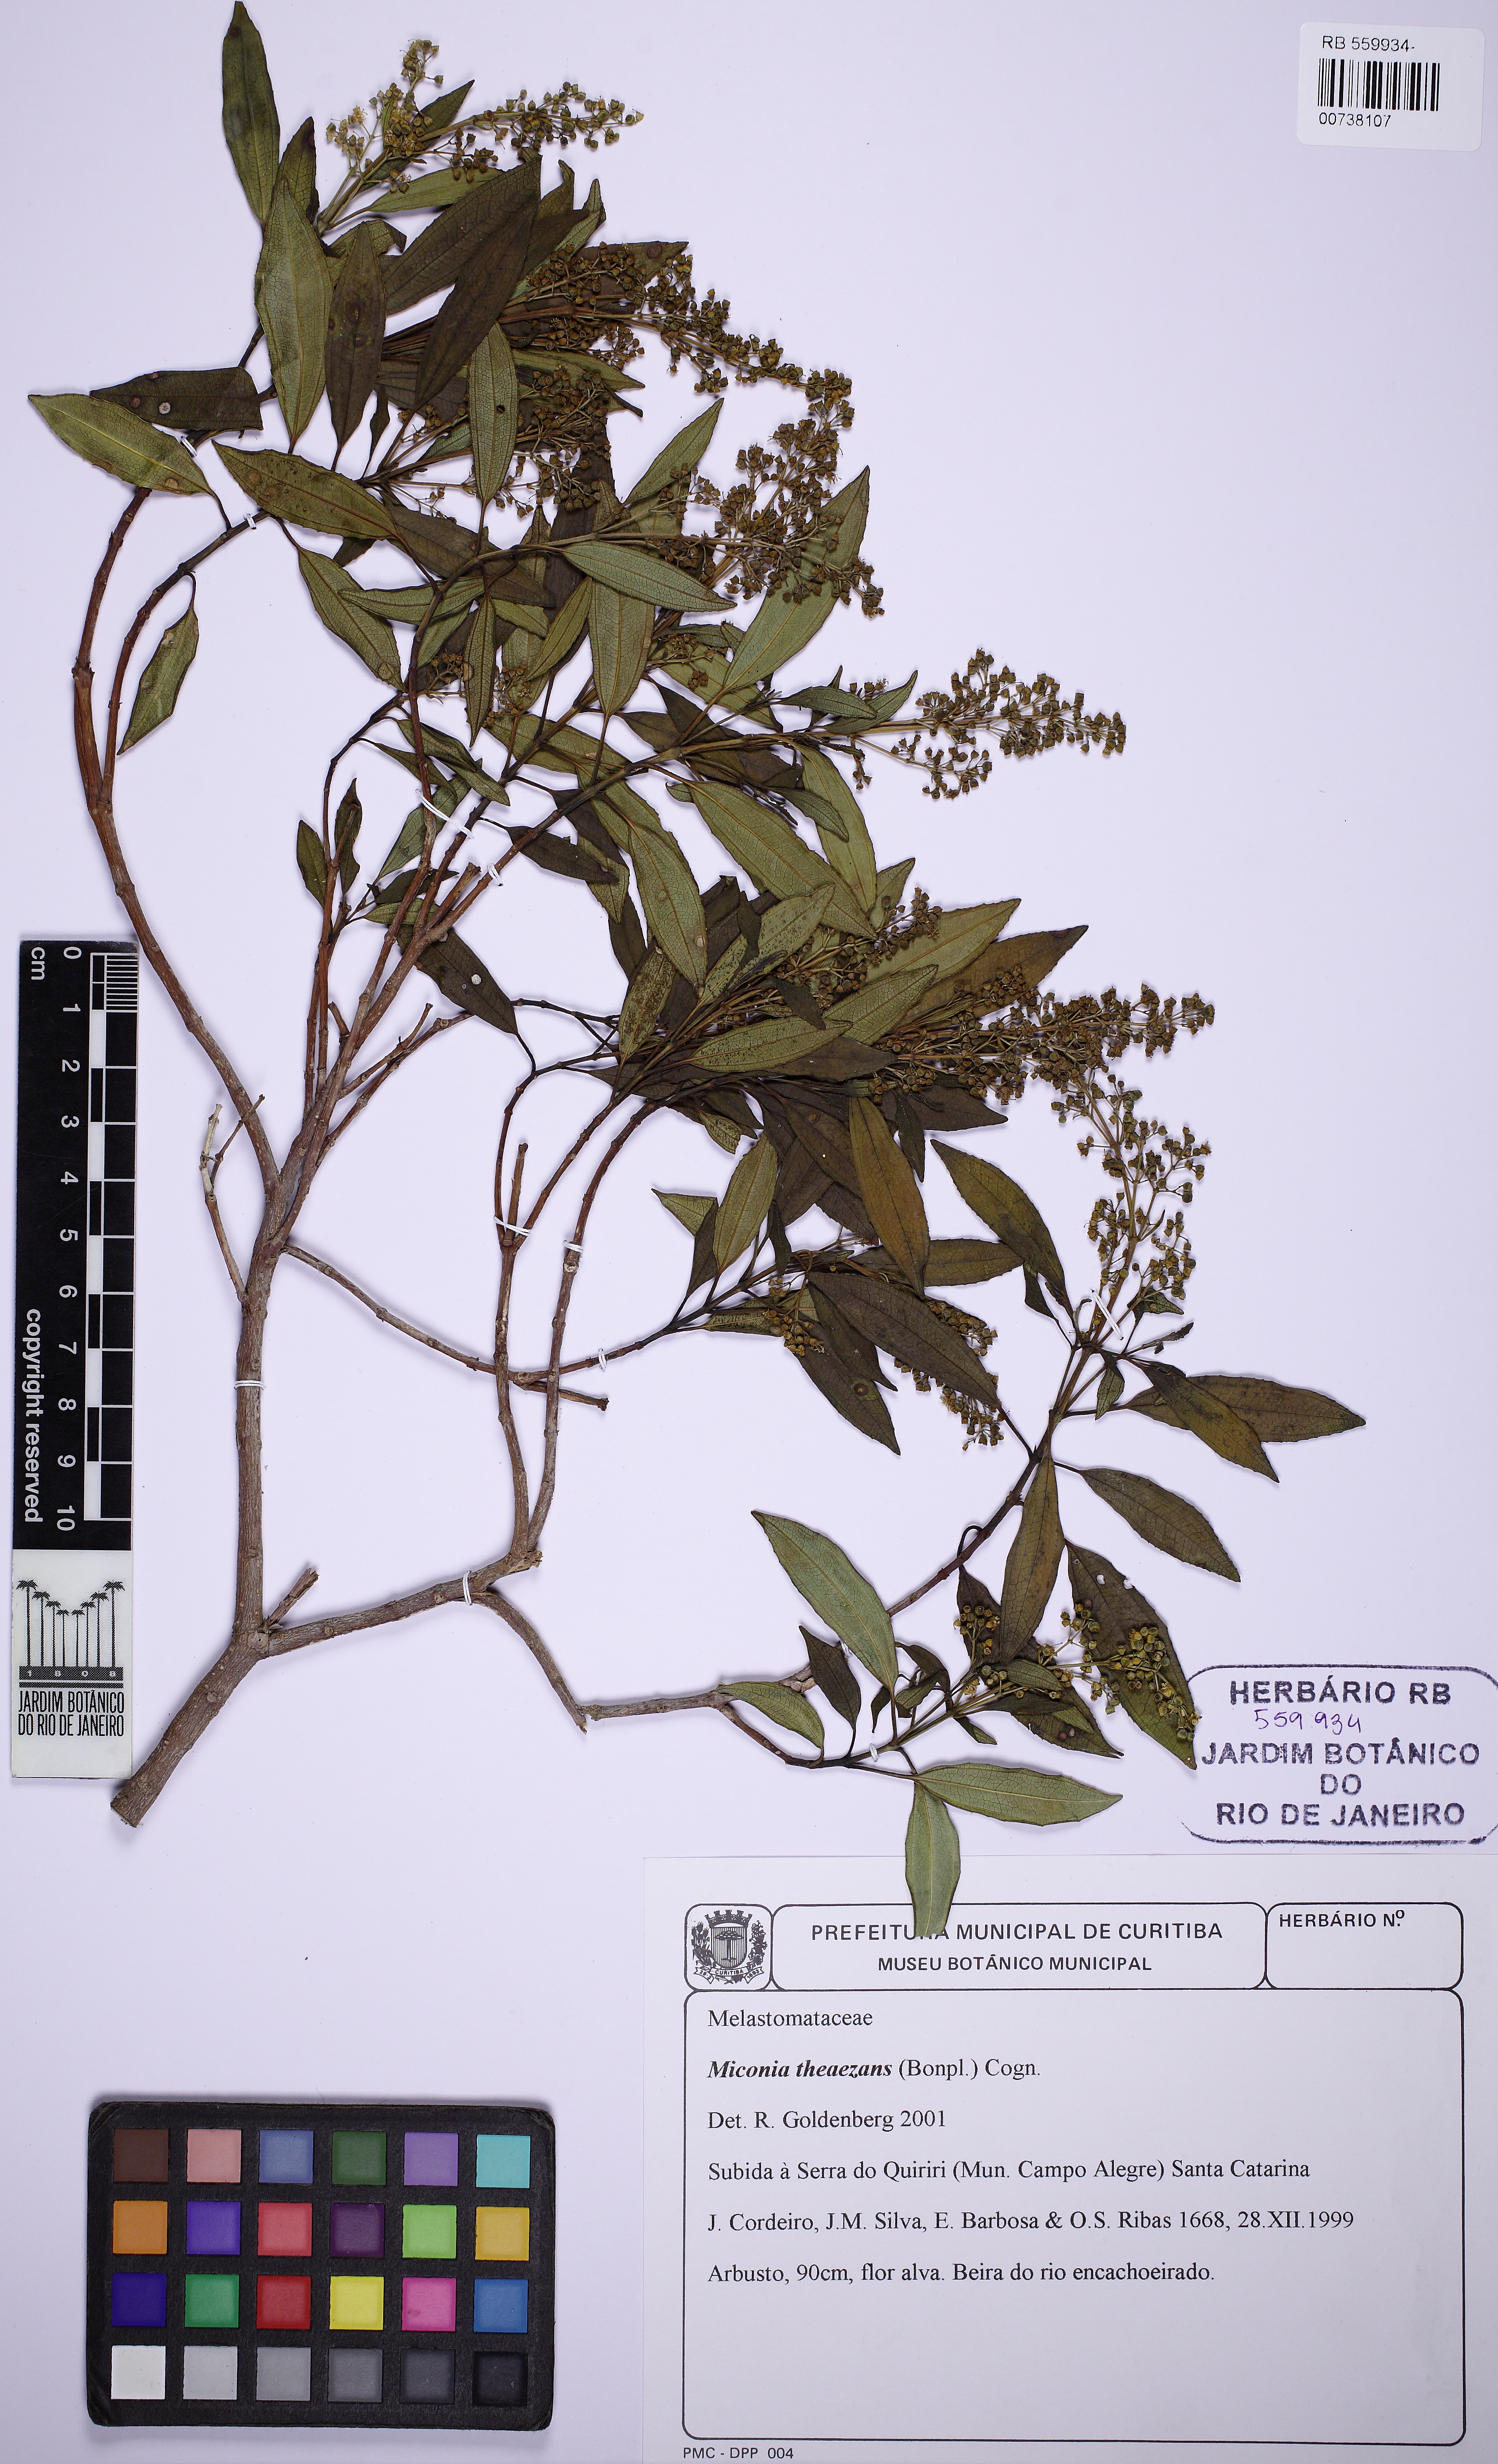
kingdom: Plantae
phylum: Tracheophyta
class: Magnoliopsida
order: Myrtales
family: Melastomataceae
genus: Miconia
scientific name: Miconia theizans
